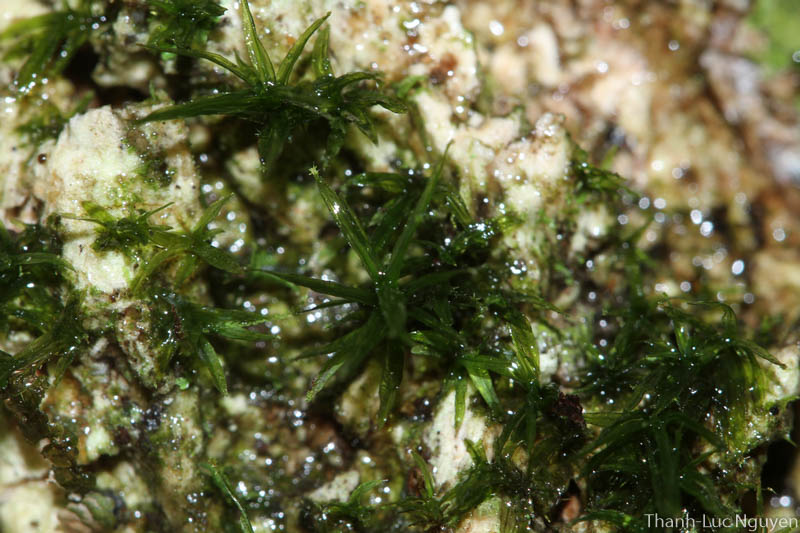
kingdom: Plantae
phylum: Bryophyta
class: Bryopsida
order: Dicranales
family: Calymperaceae
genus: Syrrhopodon
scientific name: Syrrhopodon
